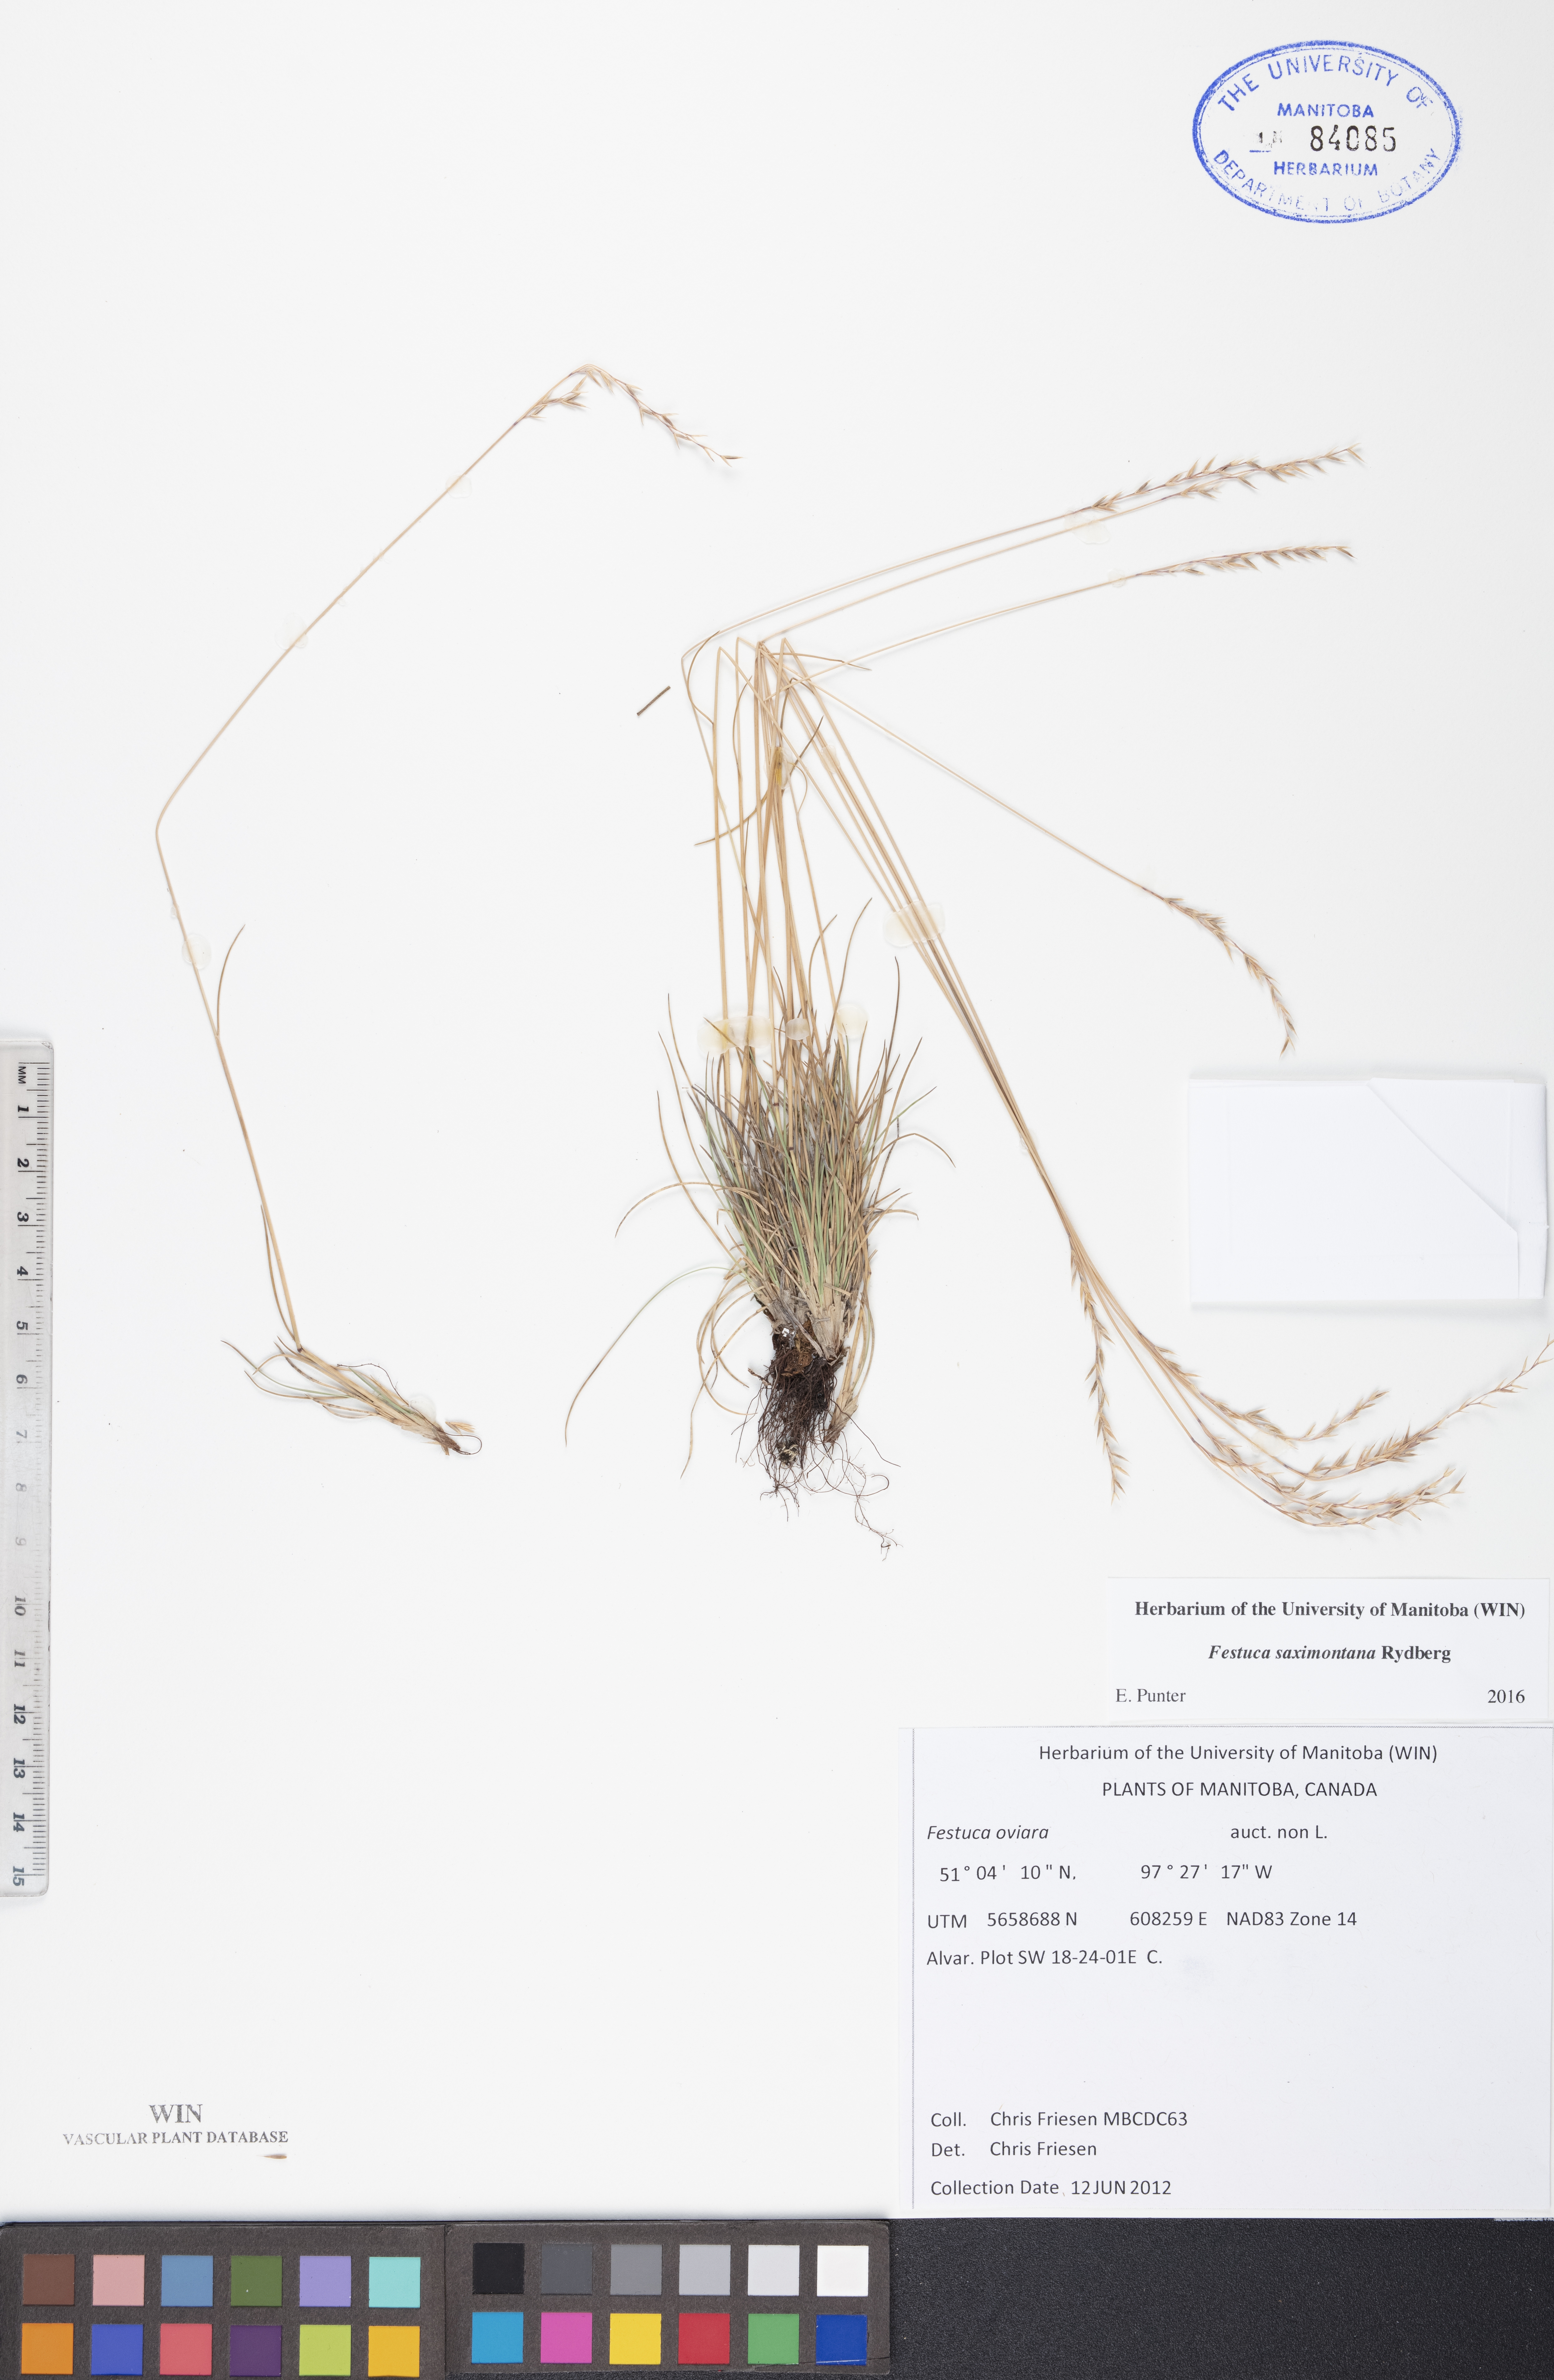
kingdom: Plantae
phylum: Tracheophyta
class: Liliopsida
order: Poales
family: Poaceae
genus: Festuca
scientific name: Festuca saximontana
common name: Mountain fescue
